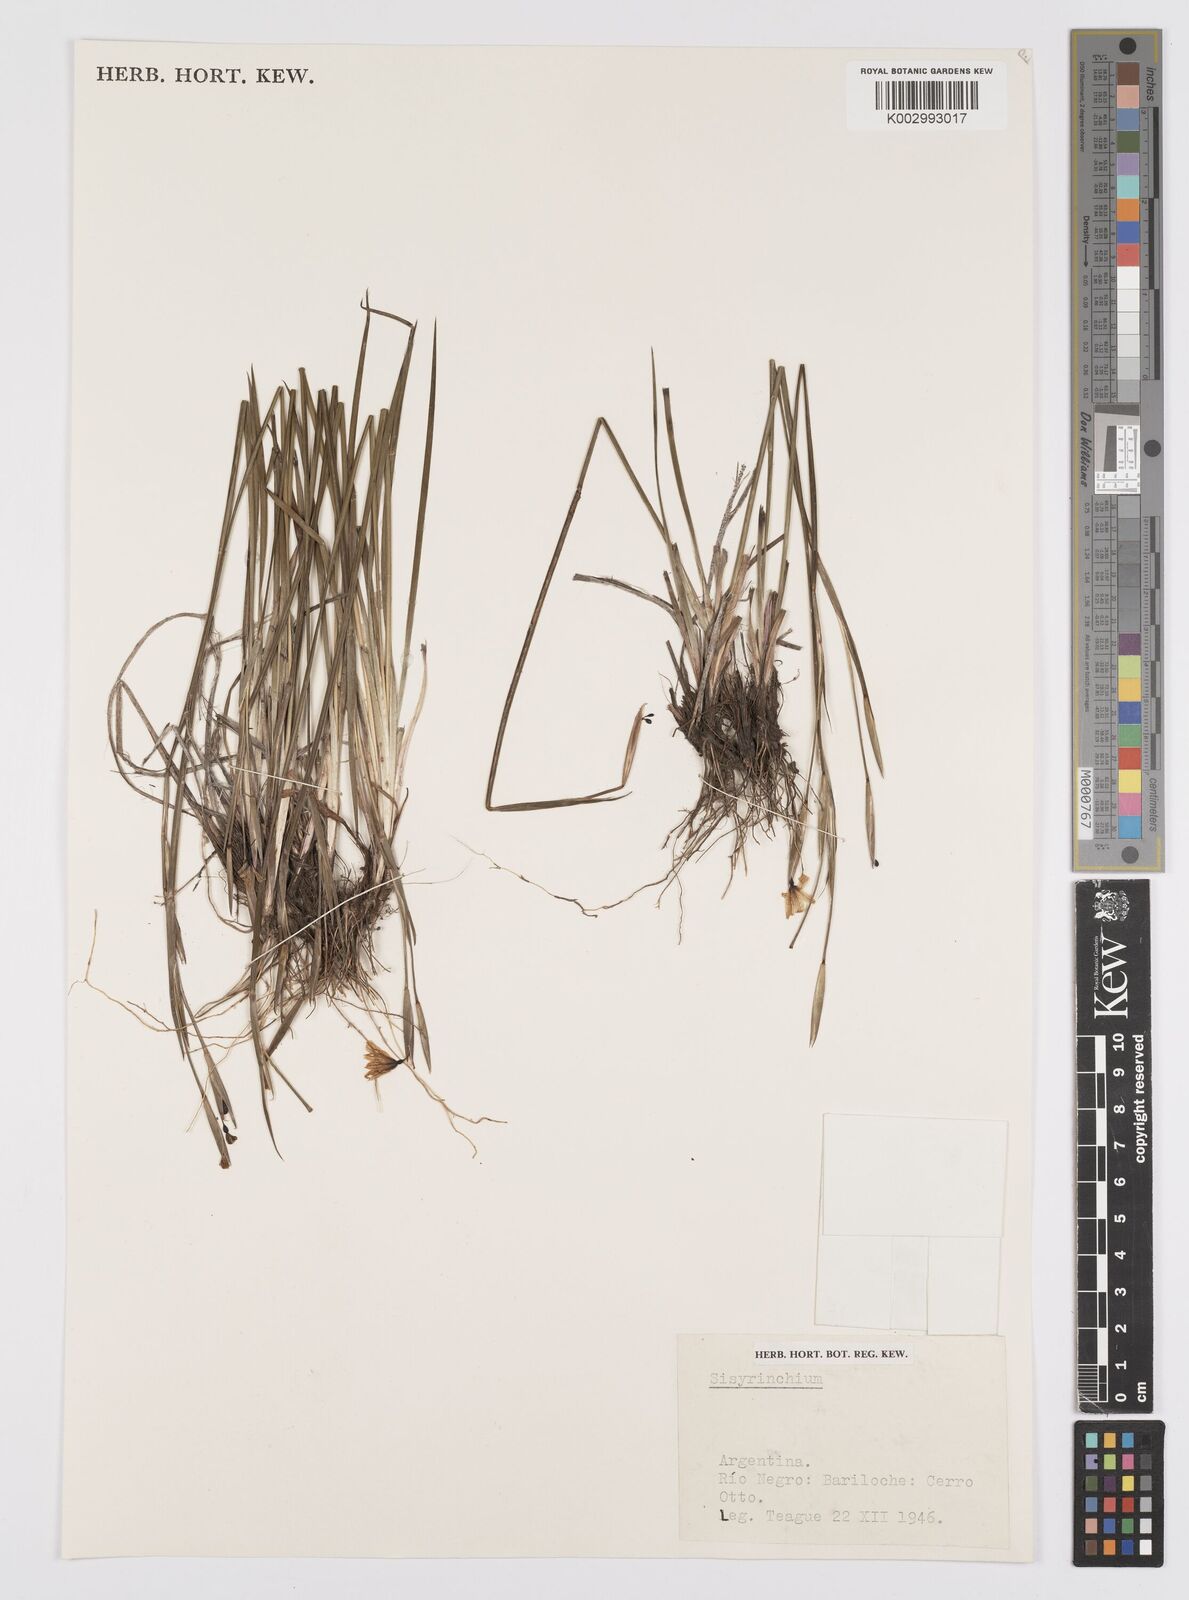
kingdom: Plantae
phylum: Tracheophyta
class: Liliopsida
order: Asparagales
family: Iridaceae
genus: Sisyrinchium
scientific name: Sisyrinchium
